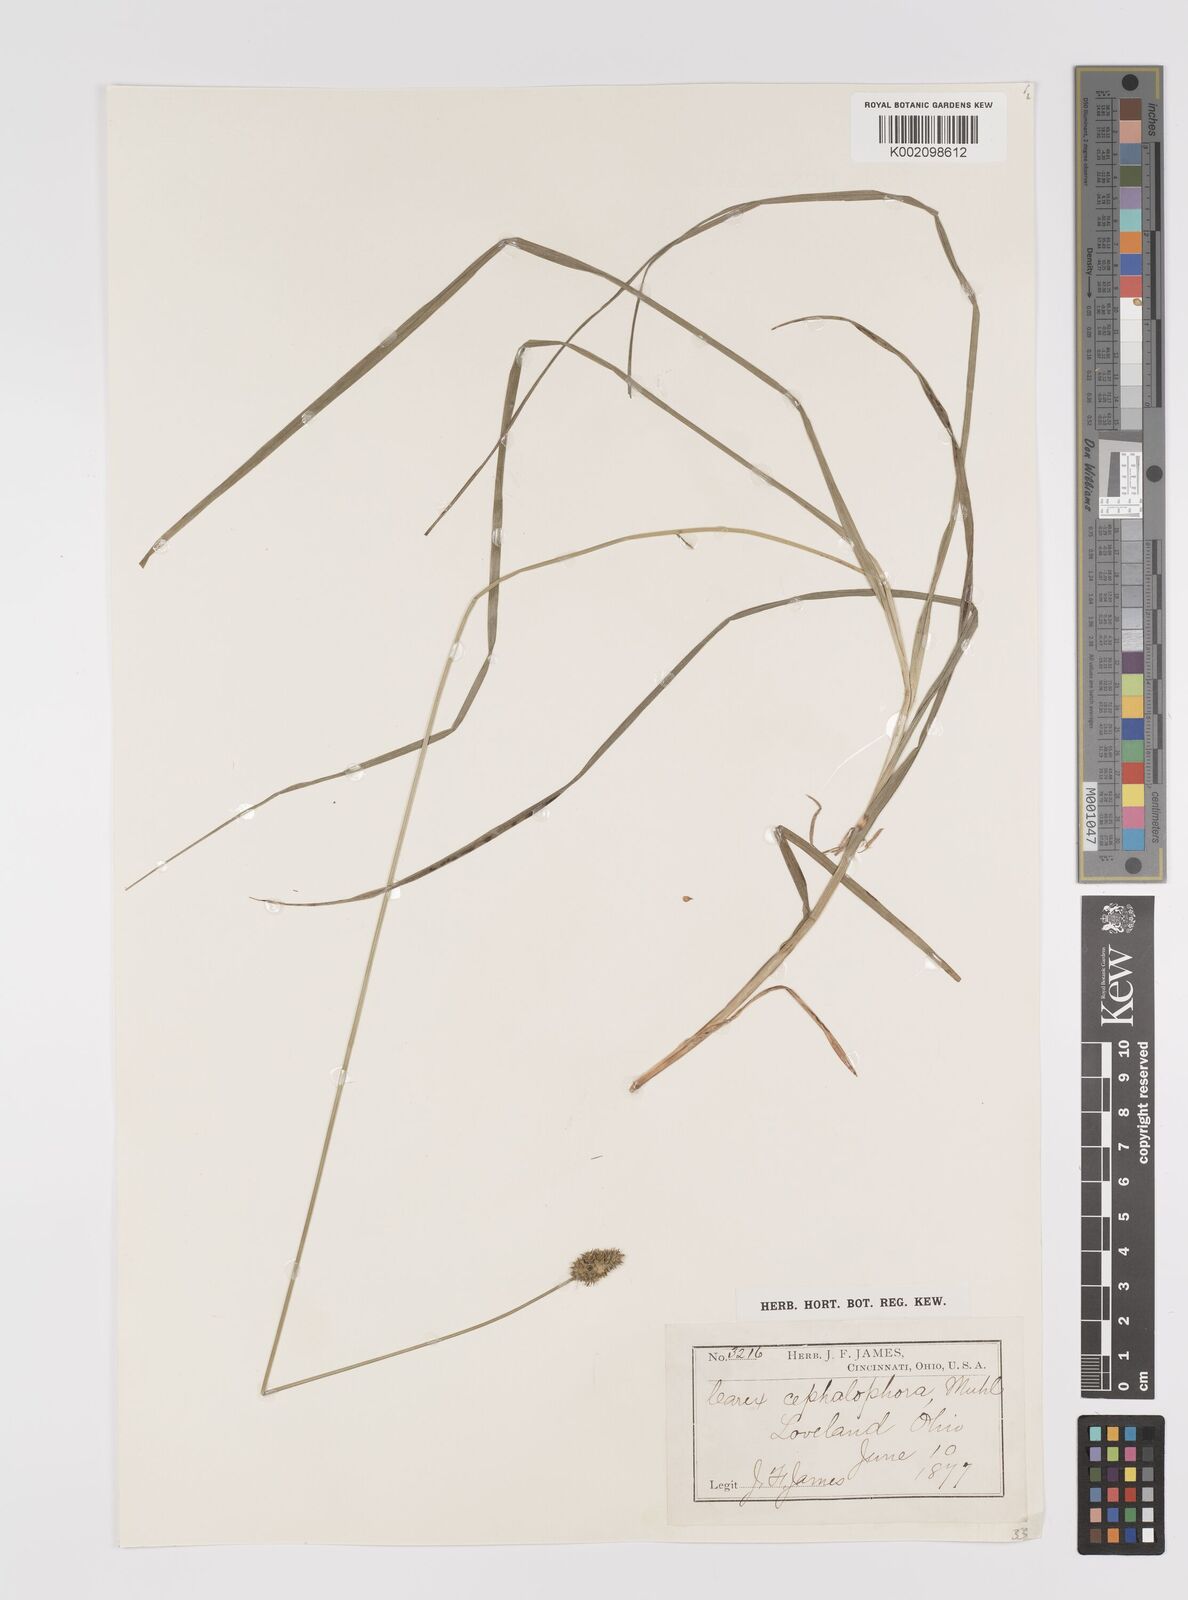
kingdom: Plantae
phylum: Tracheophyta
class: Liliopsida
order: Poales
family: Cyperaceae
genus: Carex
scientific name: Carex cephalophora
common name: Oval-headed sedge
